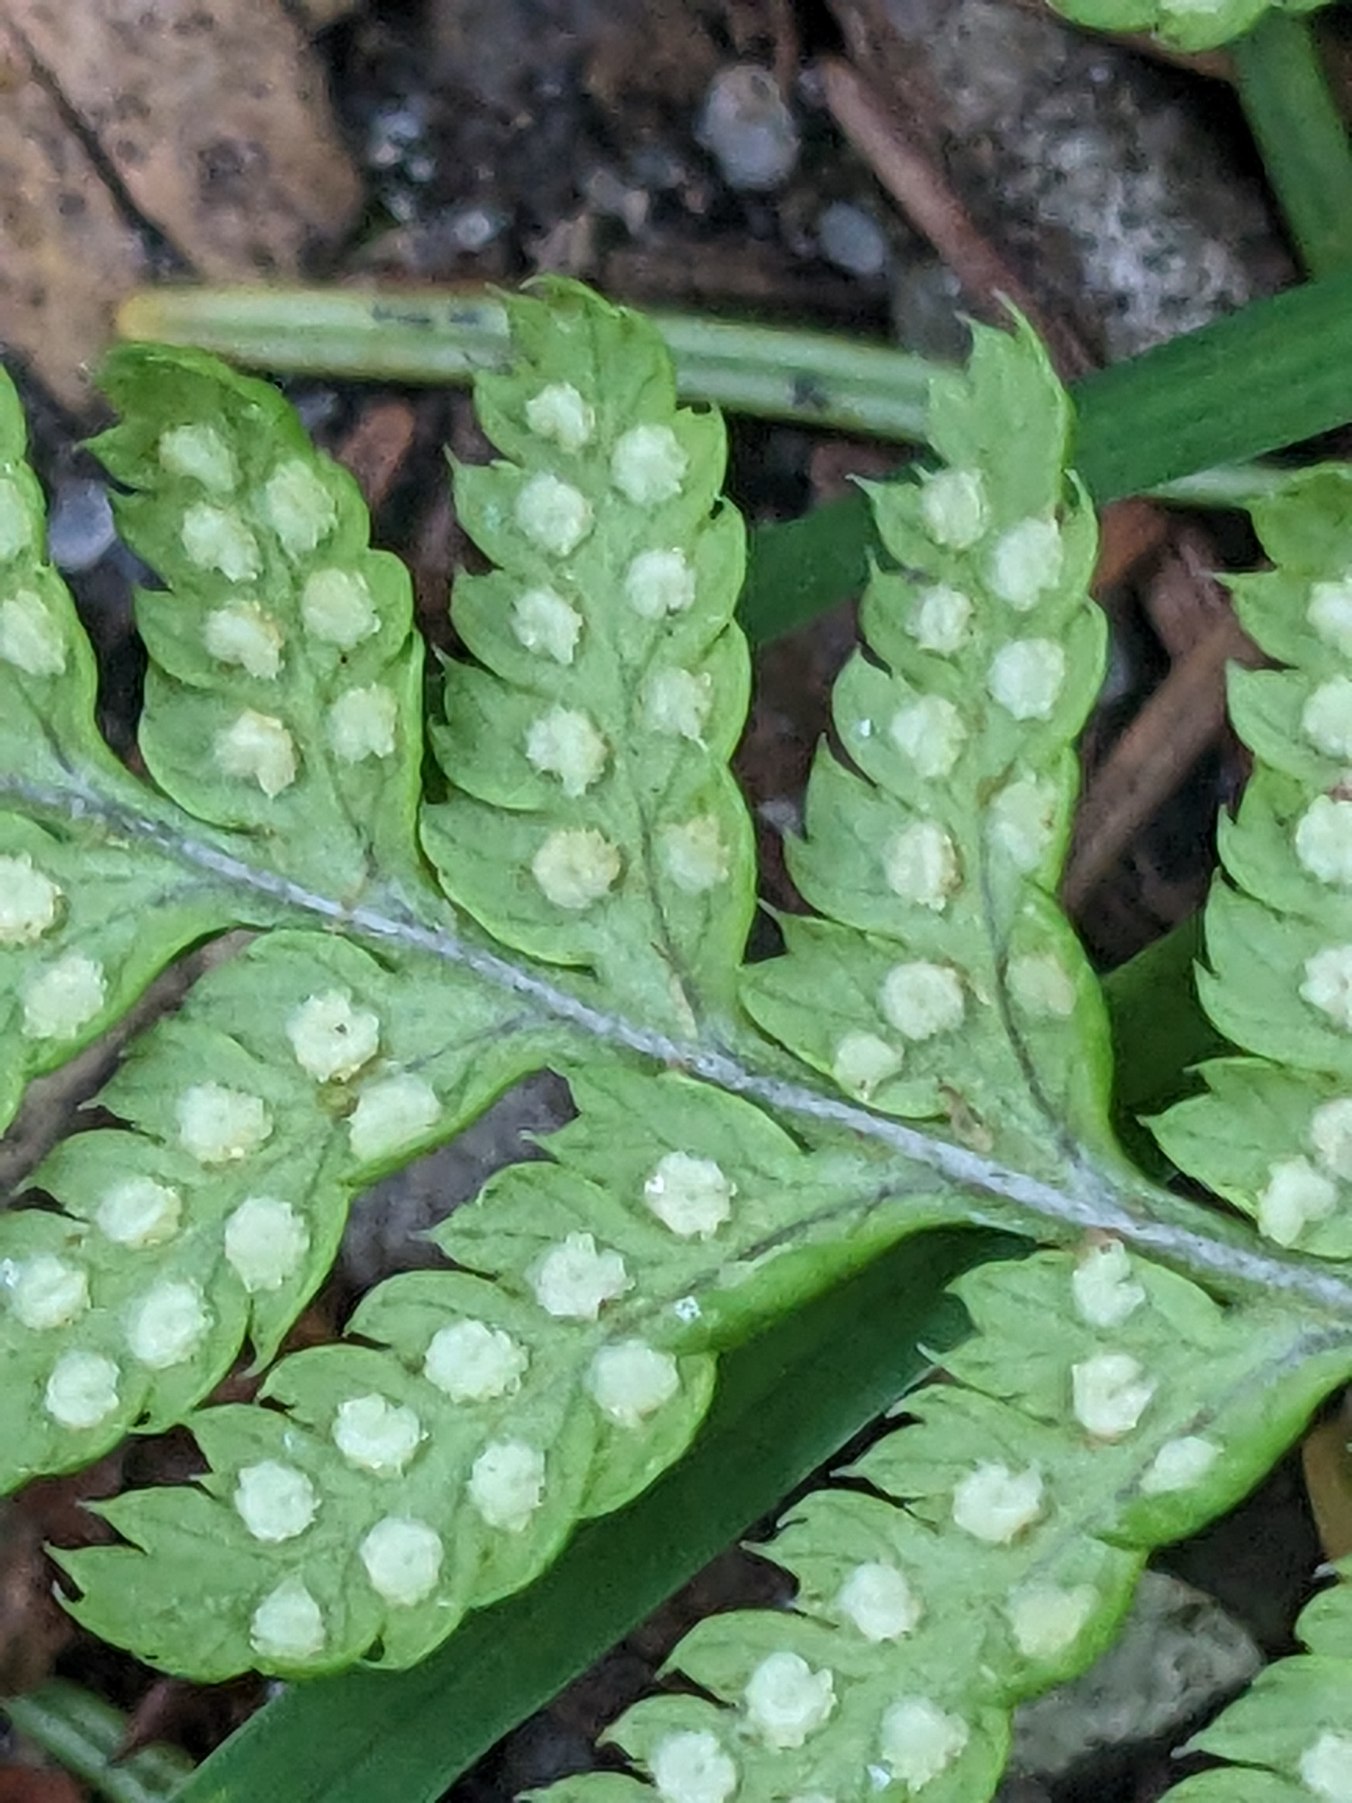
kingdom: Plantae
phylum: Tracheophyta
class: Polypodiopsida
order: Polypodiales
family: Dryopteridaceae
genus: Dryopteris
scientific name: Dryopteris dilatata
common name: Bredbladet mangeløv
